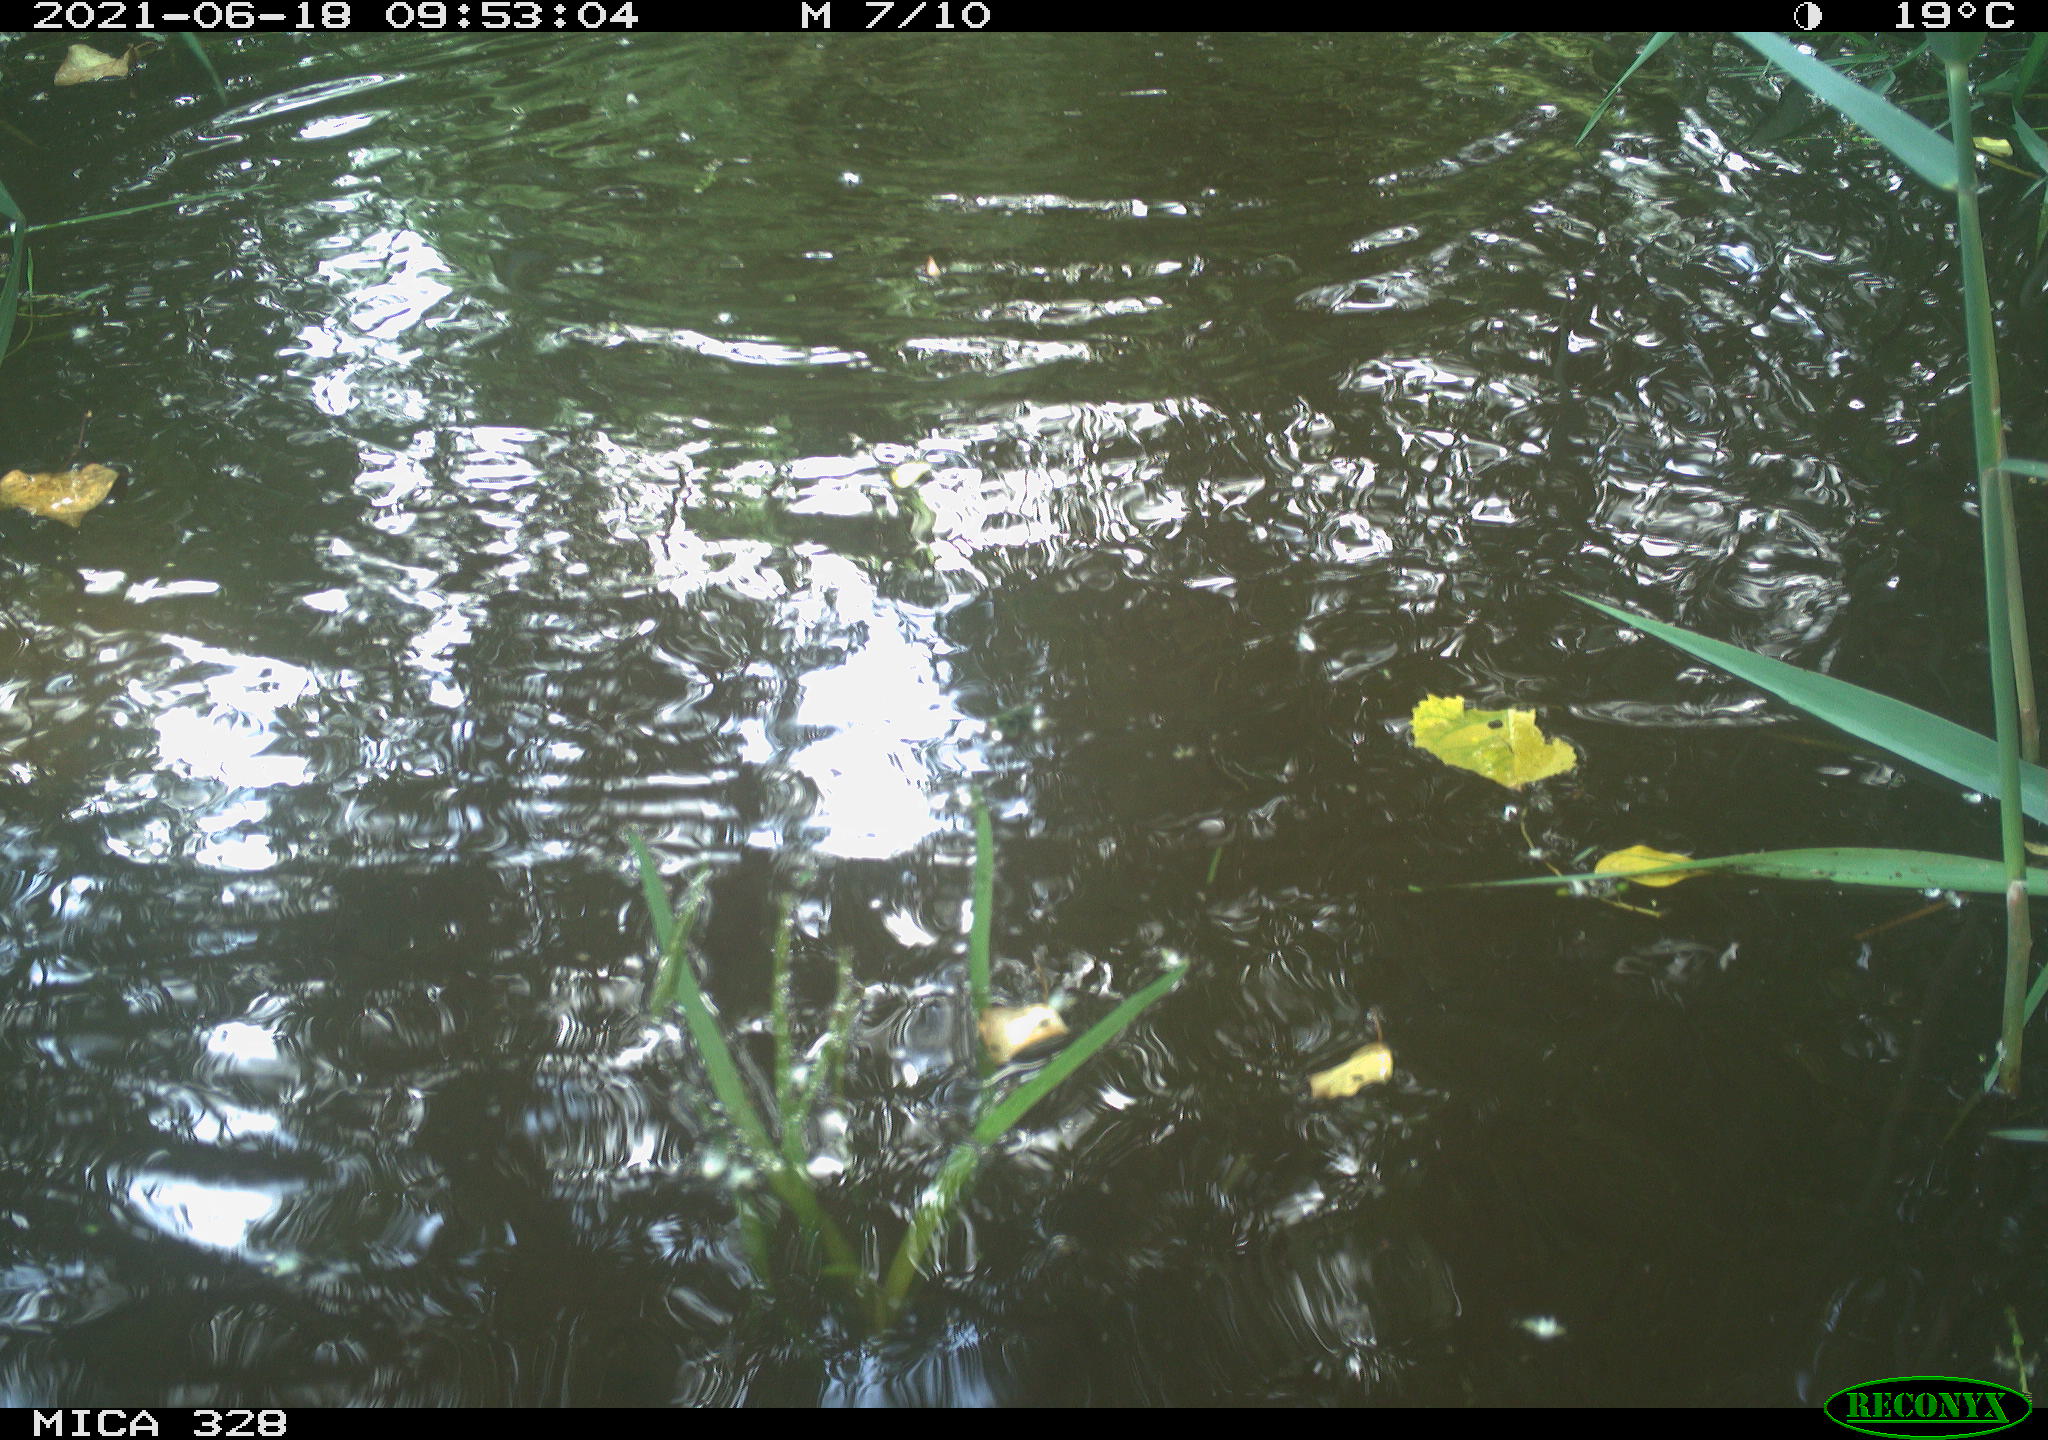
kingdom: Animalia
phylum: Chordata
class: Mammalia
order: Rodentia
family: Cricetidae
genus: Ondatra
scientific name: Ondatra zibethicus
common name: Muskrat
